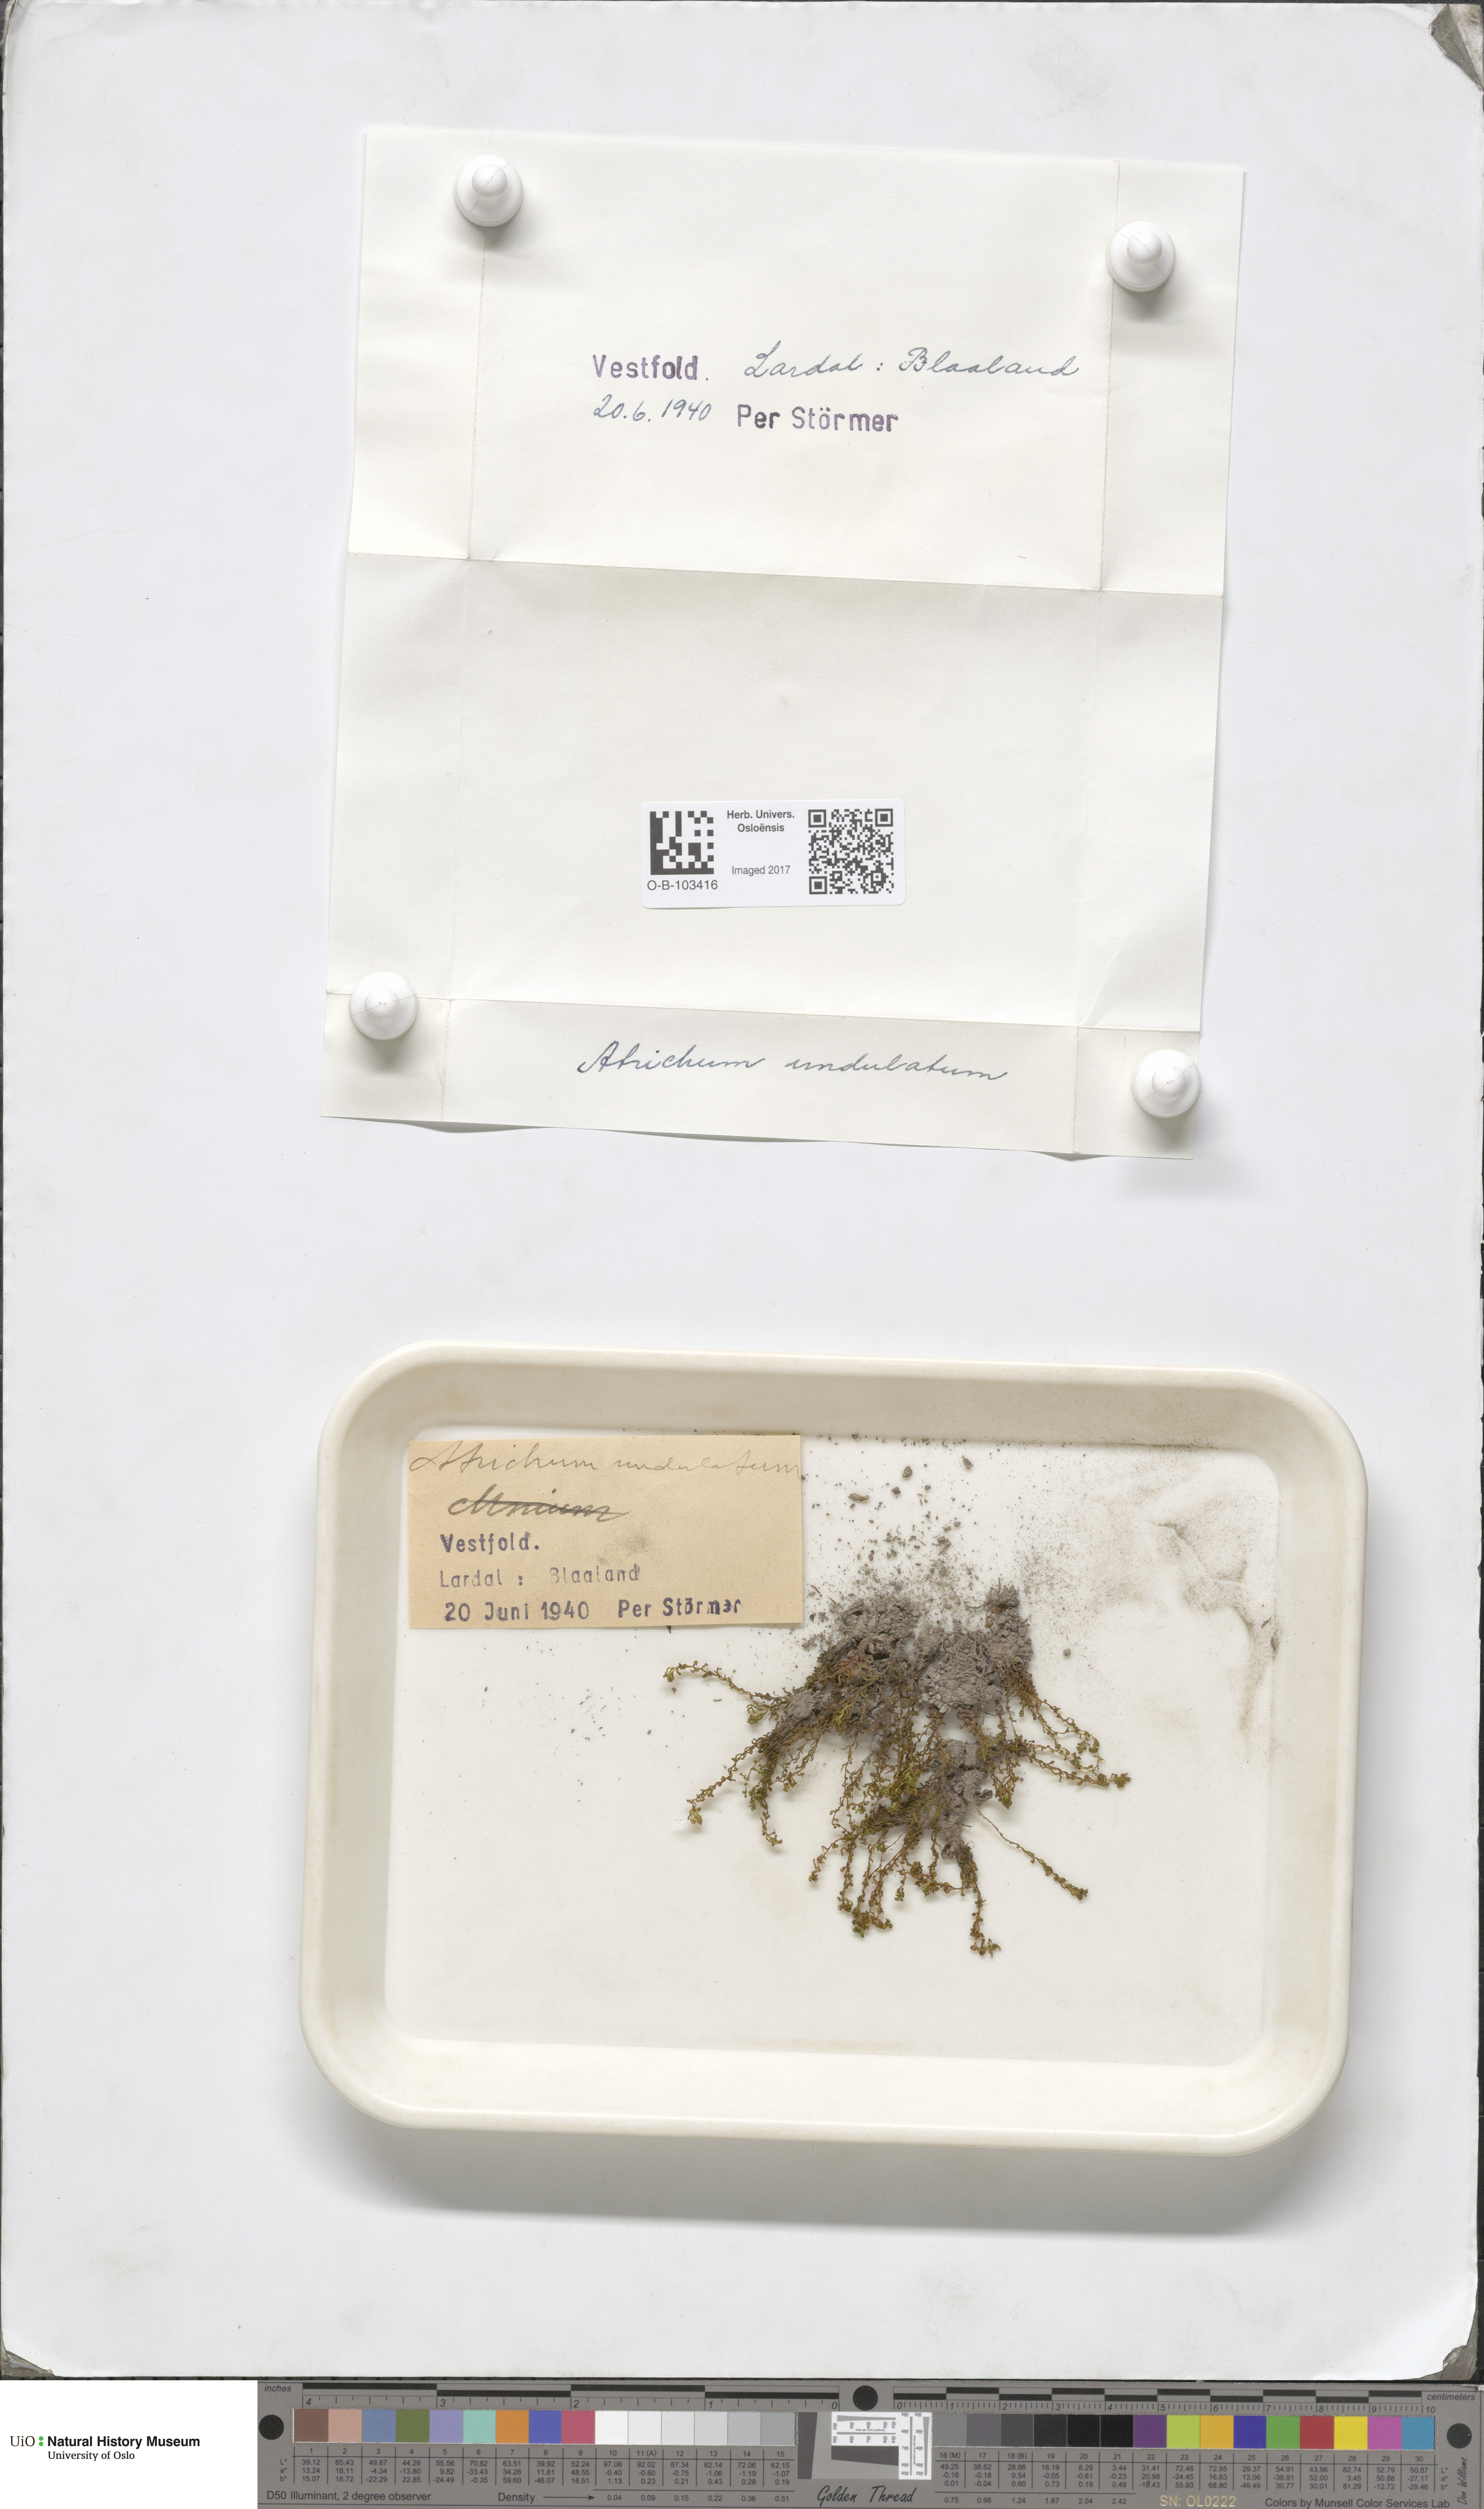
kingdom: Plantae
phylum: Bryophyta
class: Polytrichopsida
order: Polytrichales
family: Polytrichaceae
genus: Atrichum
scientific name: Atrichum undulatum
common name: Common smoothcap
